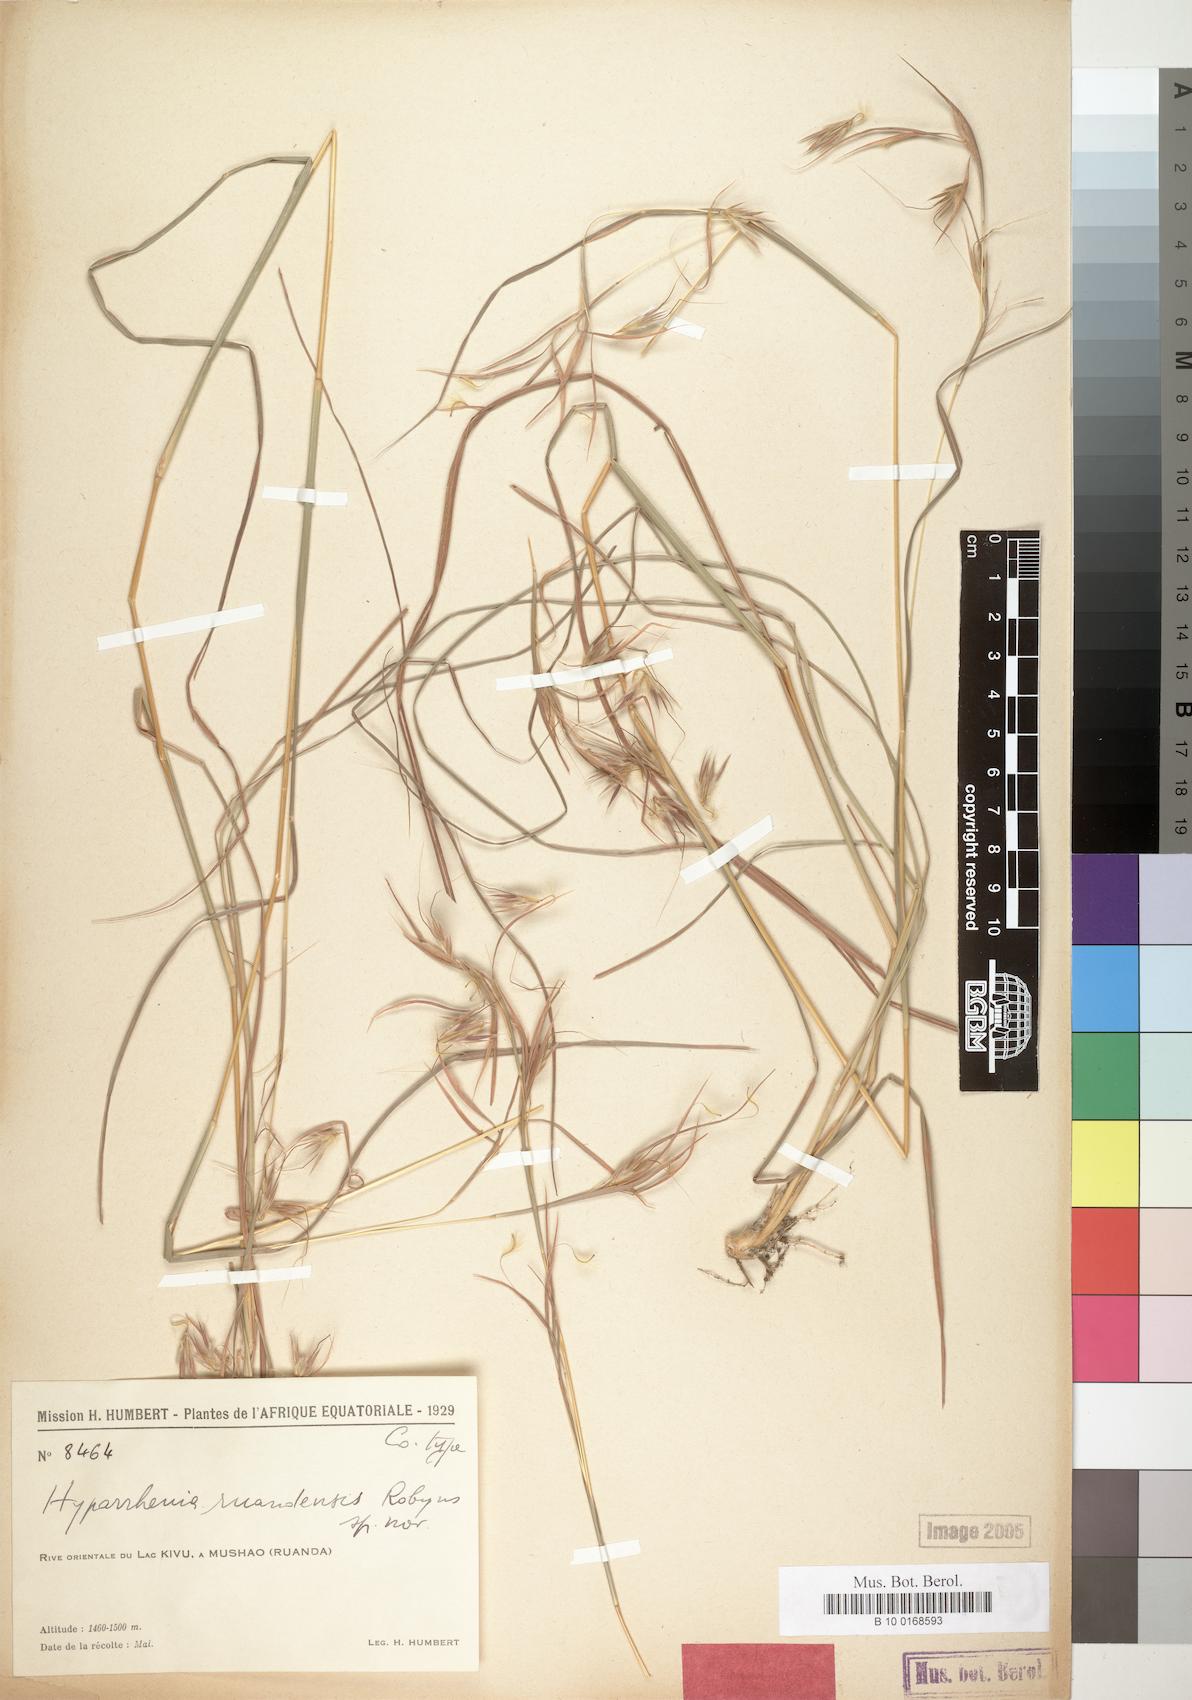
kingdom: Plantae
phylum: Tracheophyta
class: Liliopsida
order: Poales
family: Poaceae
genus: Hyparrhenia
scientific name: Hyparrhenia
